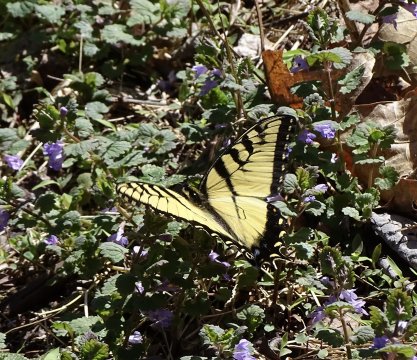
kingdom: Animalia
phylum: Arthropoda
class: Insecta
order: Lepidoptera
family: Papilionidae
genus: Pterourus
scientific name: Pterourus glaucus
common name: Eastern Tiger Swallowtail
